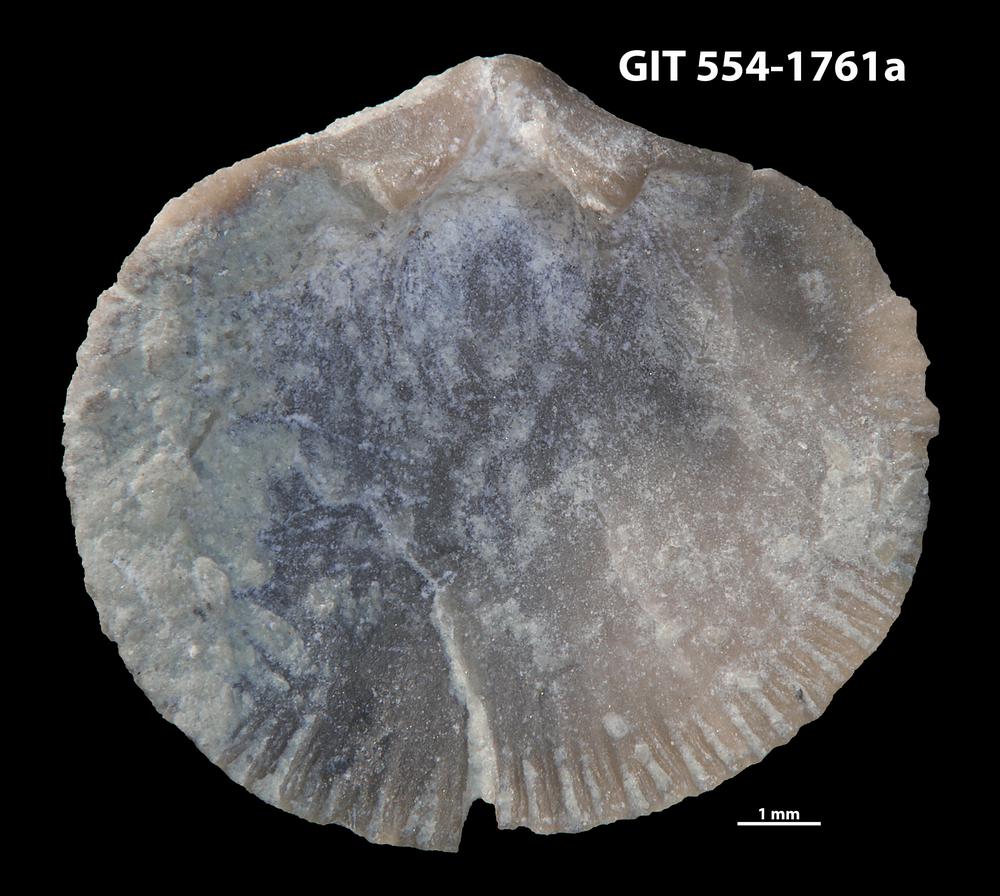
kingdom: Animalia
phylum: Brachiopoda
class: Rhynchonellata
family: Dalmanellidae
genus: Dalmanella
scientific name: Dalmanella cyclica
